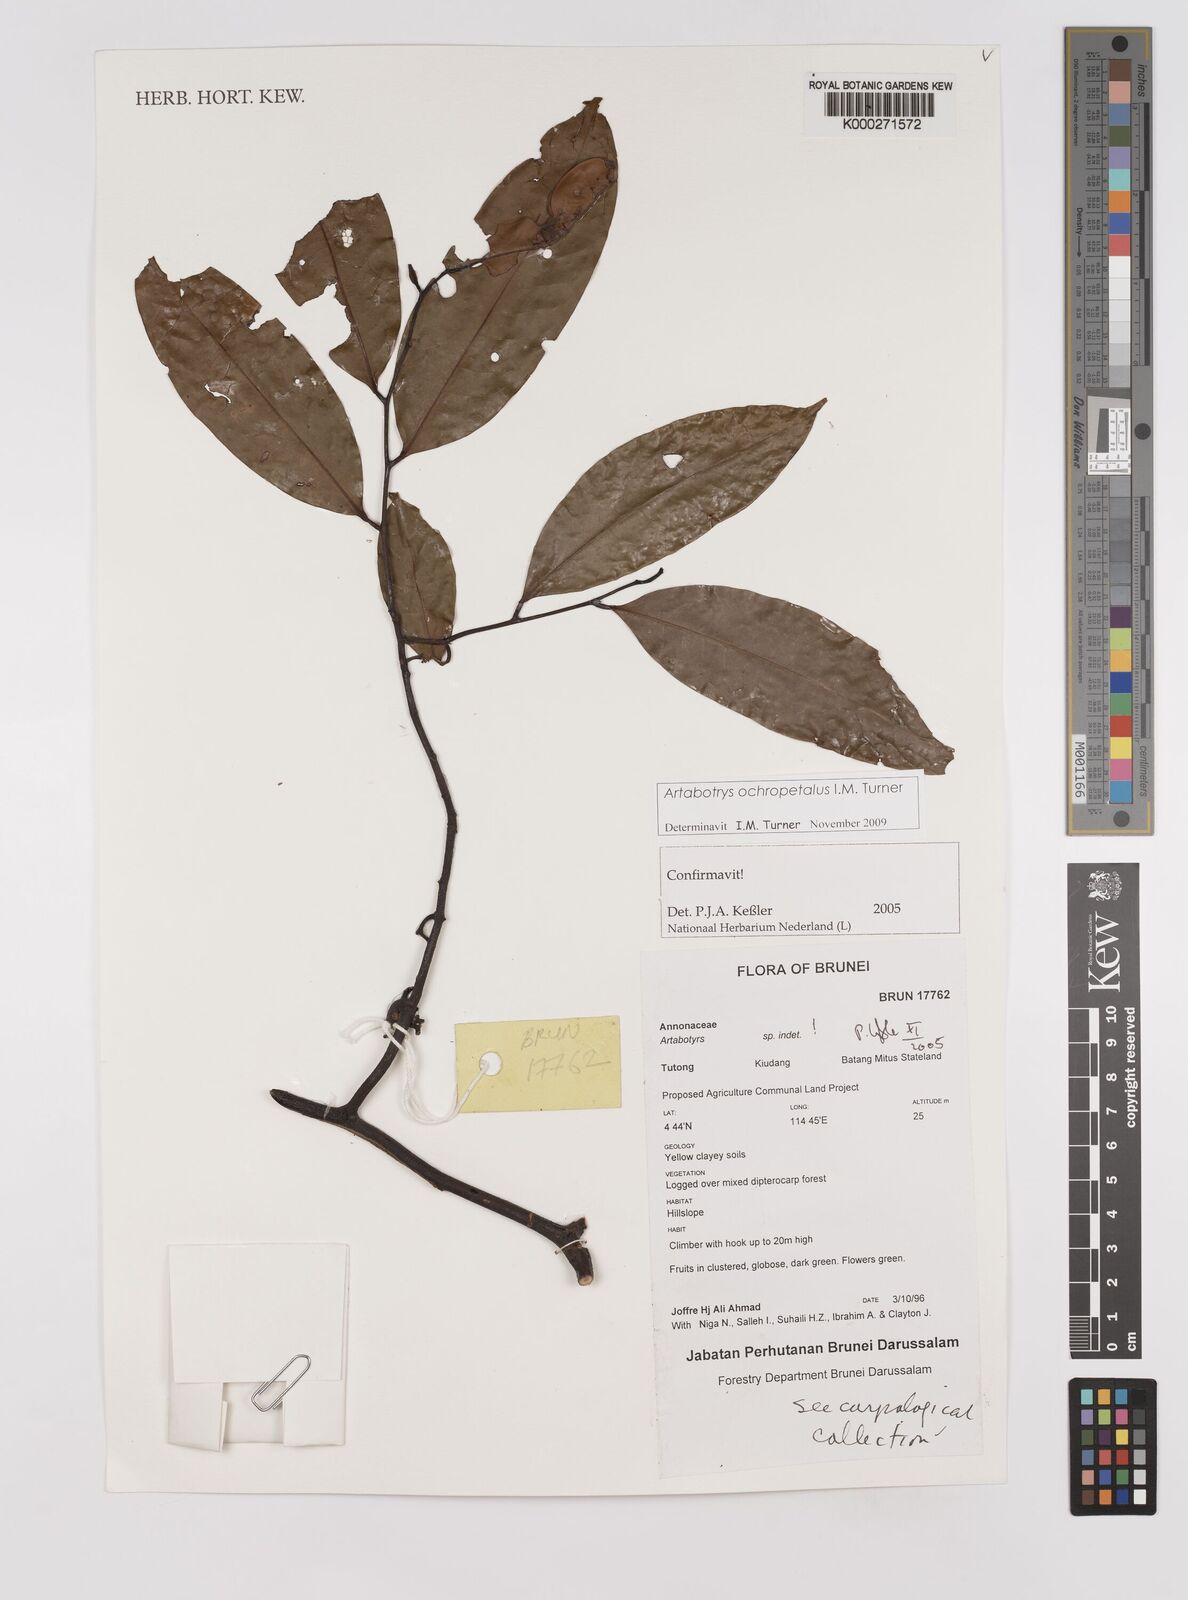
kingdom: Plantae
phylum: Tracheophyta
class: Magnoliopsida
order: Magnoliales
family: Annonaceae
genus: Artabotrys
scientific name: Artabotrys
